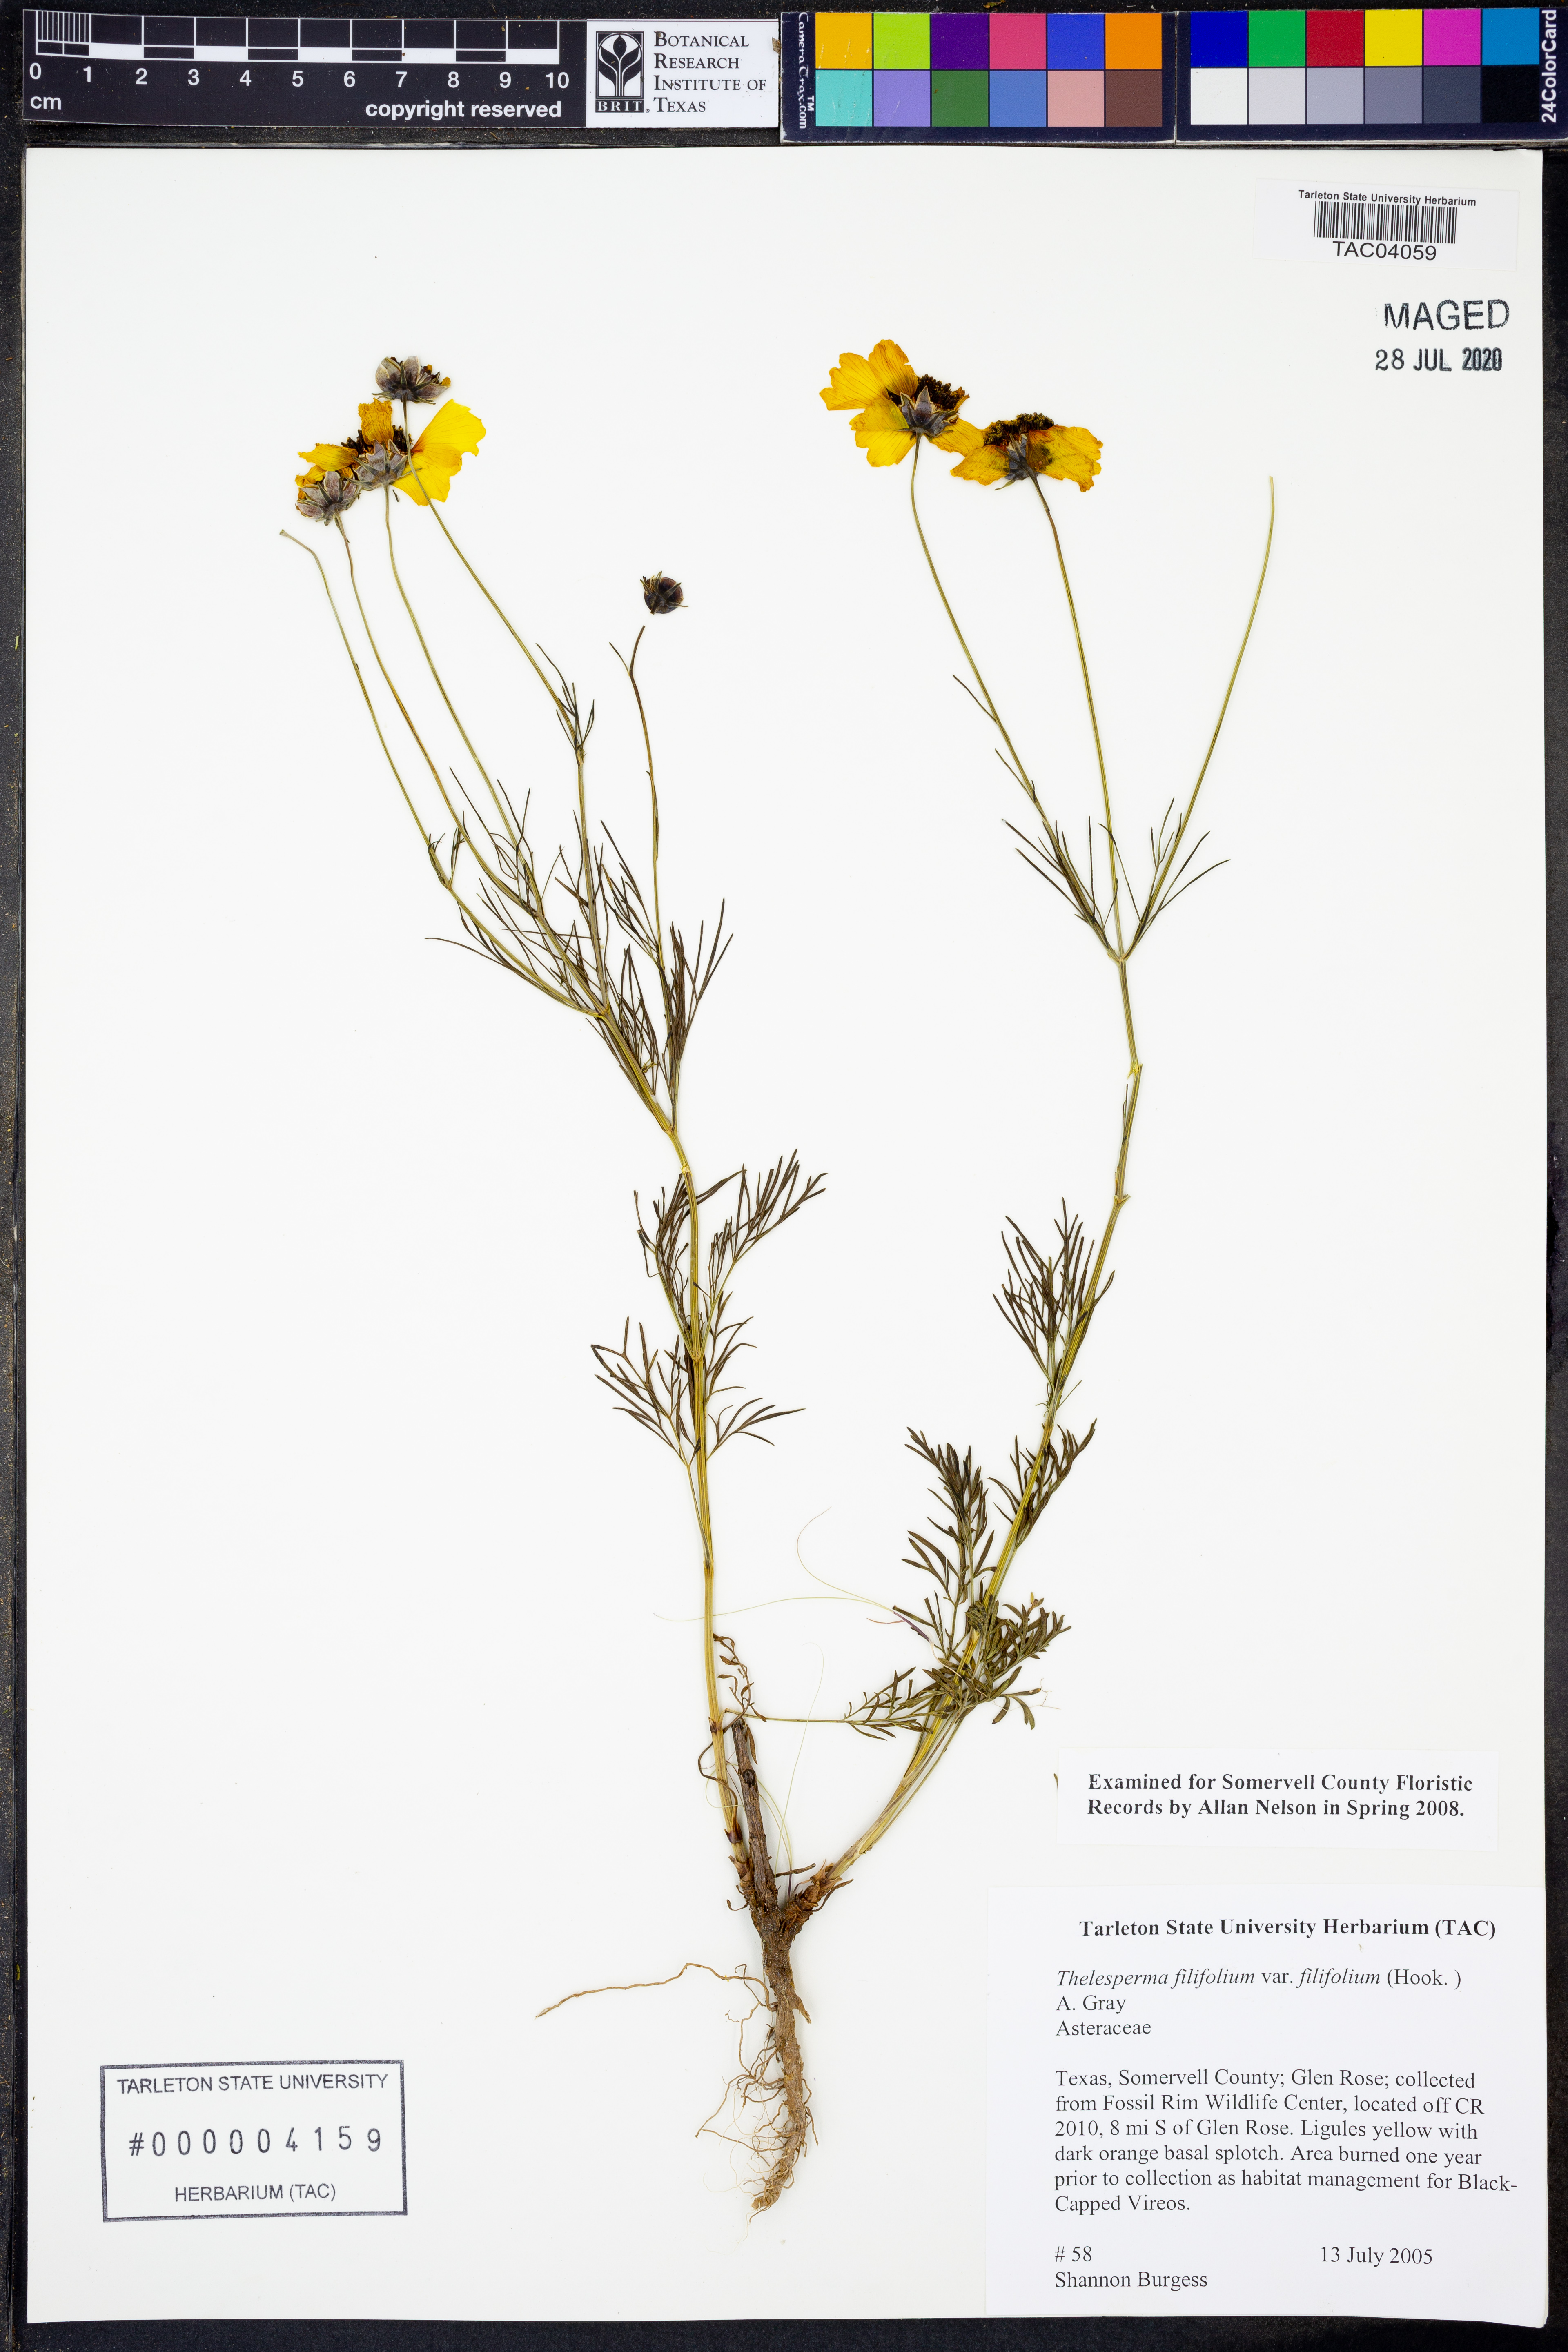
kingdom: Plantae
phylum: Tracheophyta
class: Magnoliopsida
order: Asterales
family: Asteraceae
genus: Thelesperma
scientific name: Thelesperma filifolium
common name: Stiff greenthread
